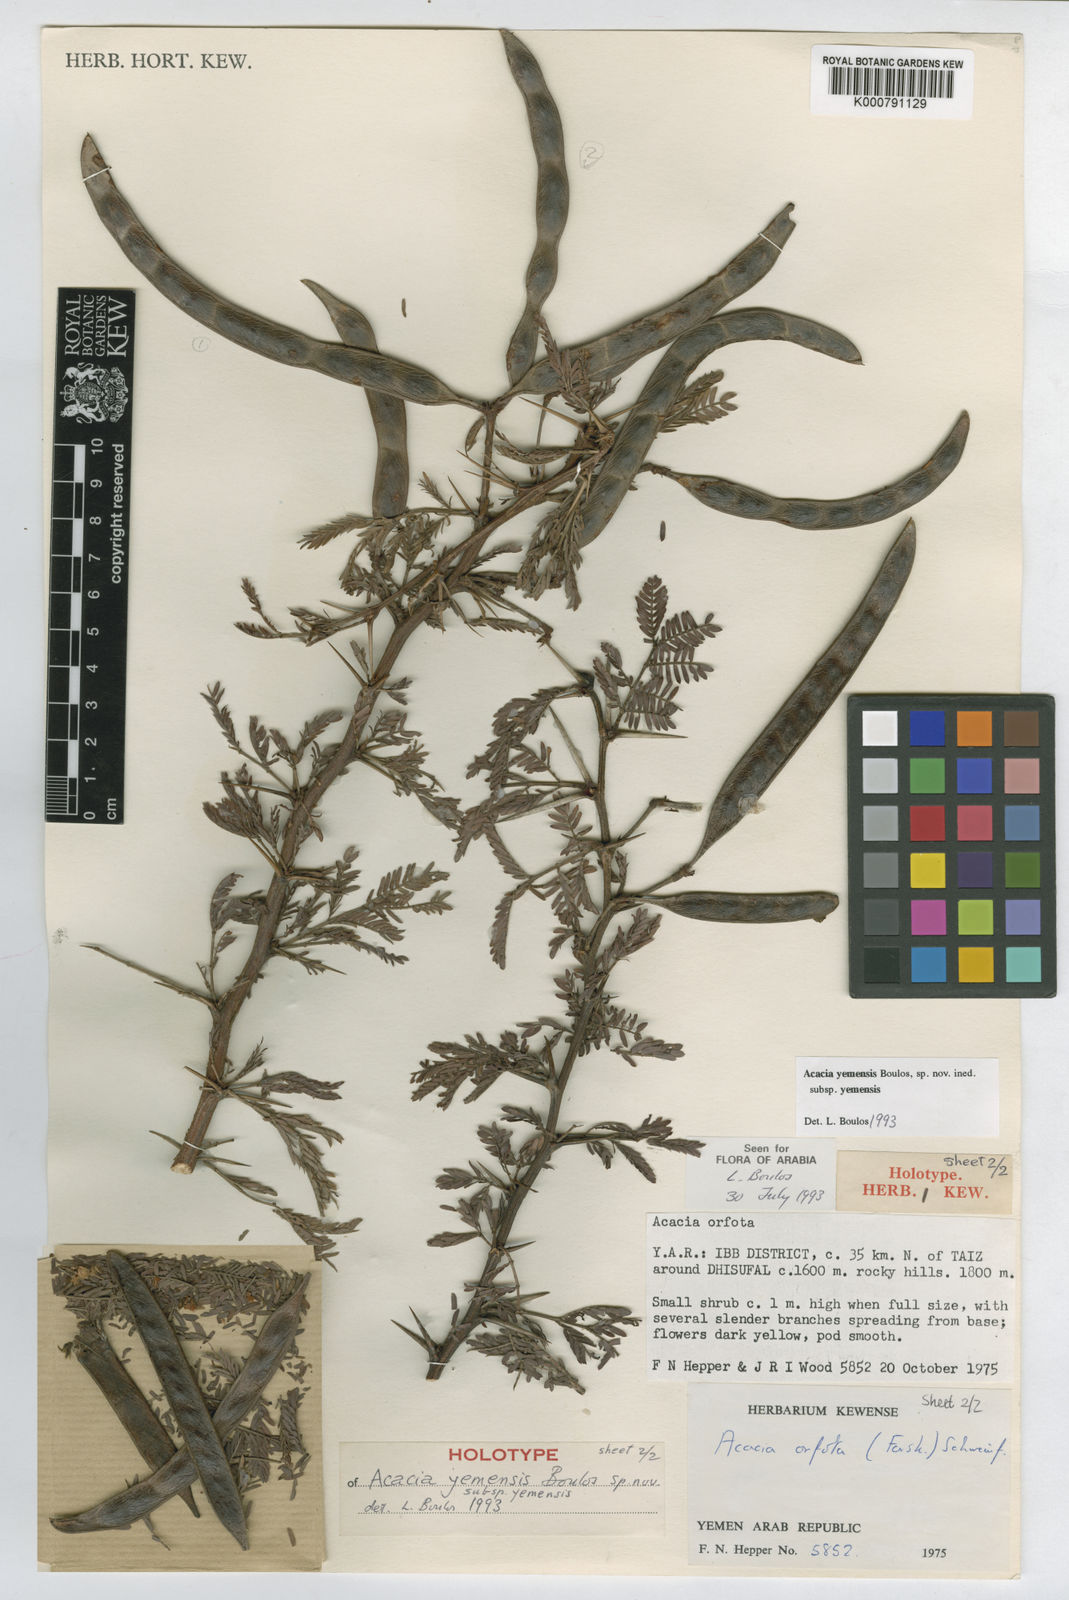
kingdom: Plantae
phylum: Tracheophyta
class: Magnoliopsida
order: Fabales
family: Fabaceae
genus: Acacia
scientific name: Acacia
